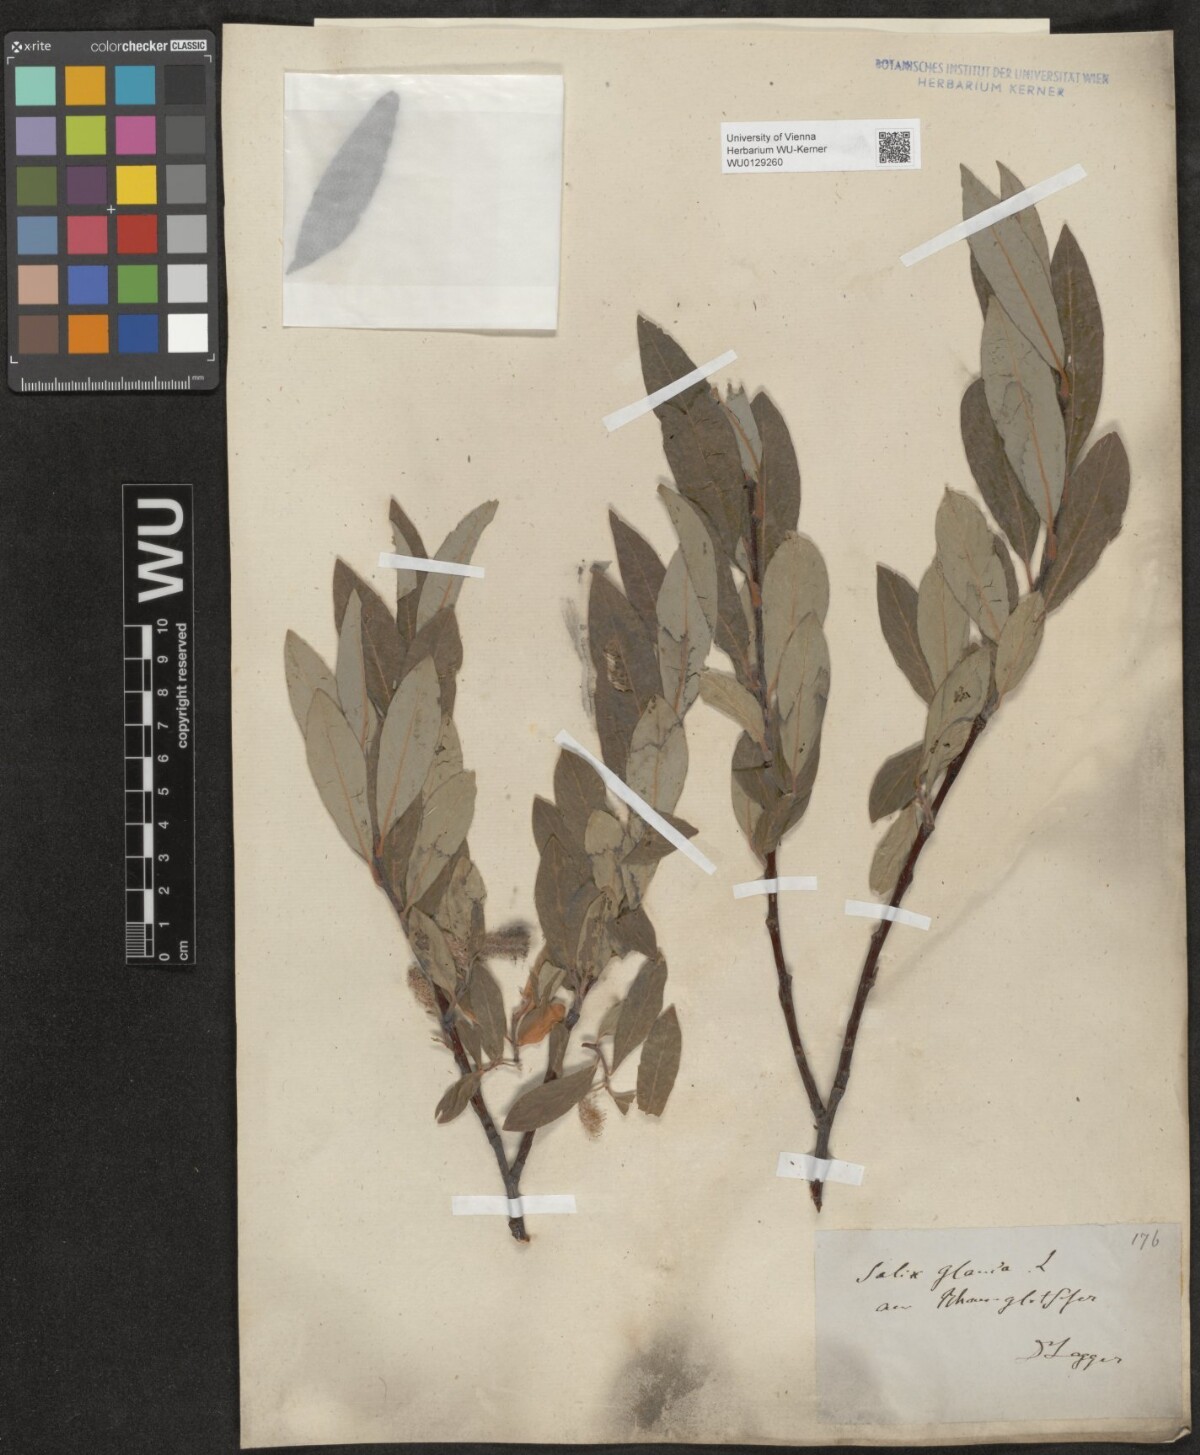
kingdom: Plantae
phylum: Tracheophyta
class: Magnoliopsida
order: Malpighiales
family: Salicaceae
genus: Salix
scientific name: Salix glauca
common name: Glaucous willow
